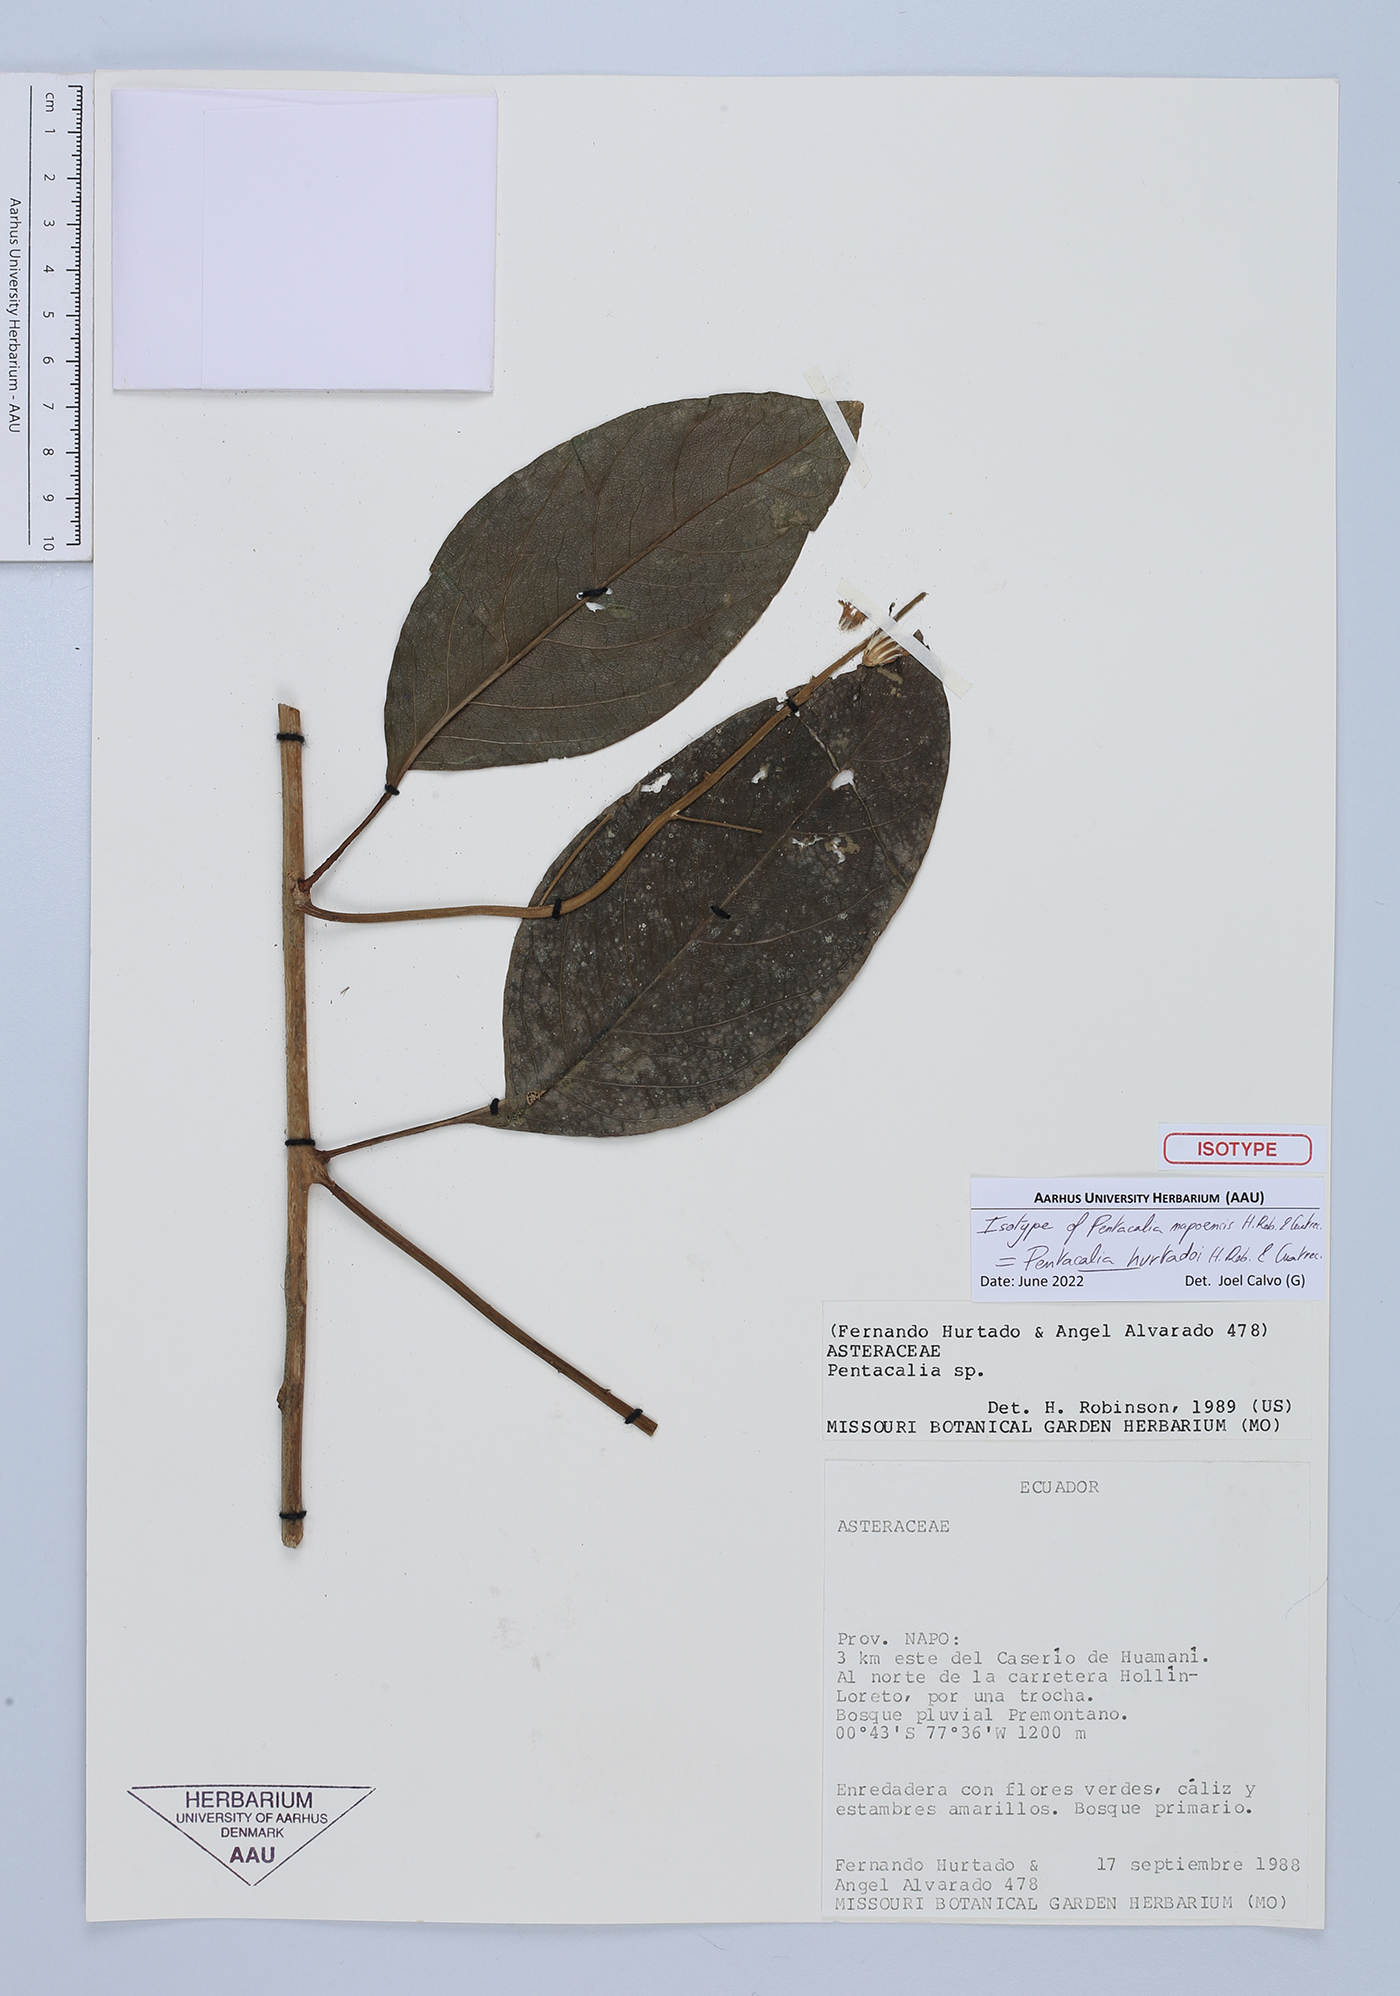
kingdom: Plantae
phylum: Tracheophyta
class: Magnoliopsida
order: Asterales
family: Asteraceae
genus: Pentacalia
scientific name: Pentacalia hurtadoi
